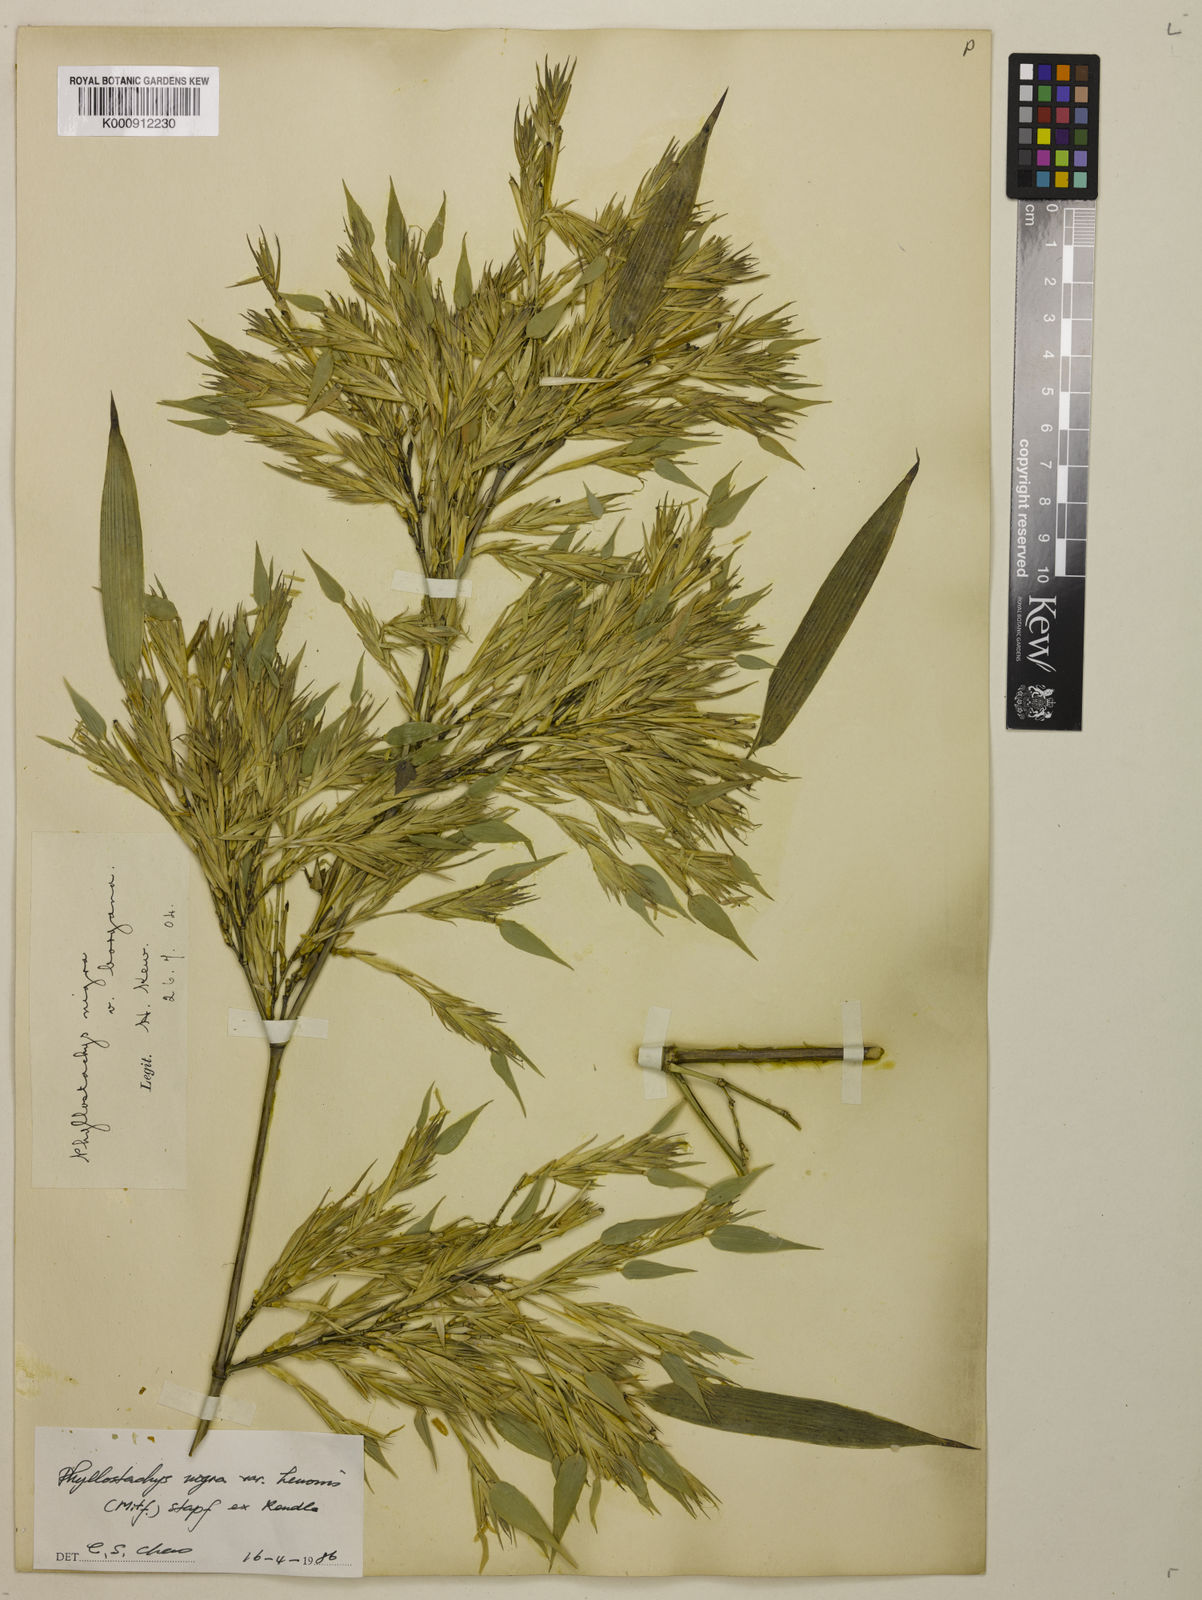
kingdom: Plantae
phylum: Tracheophyta
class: Liliopsida
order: Poales
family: Poaceae
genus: Phyllostachys
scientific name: Phyllostachys nigra
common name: Black bamboo
